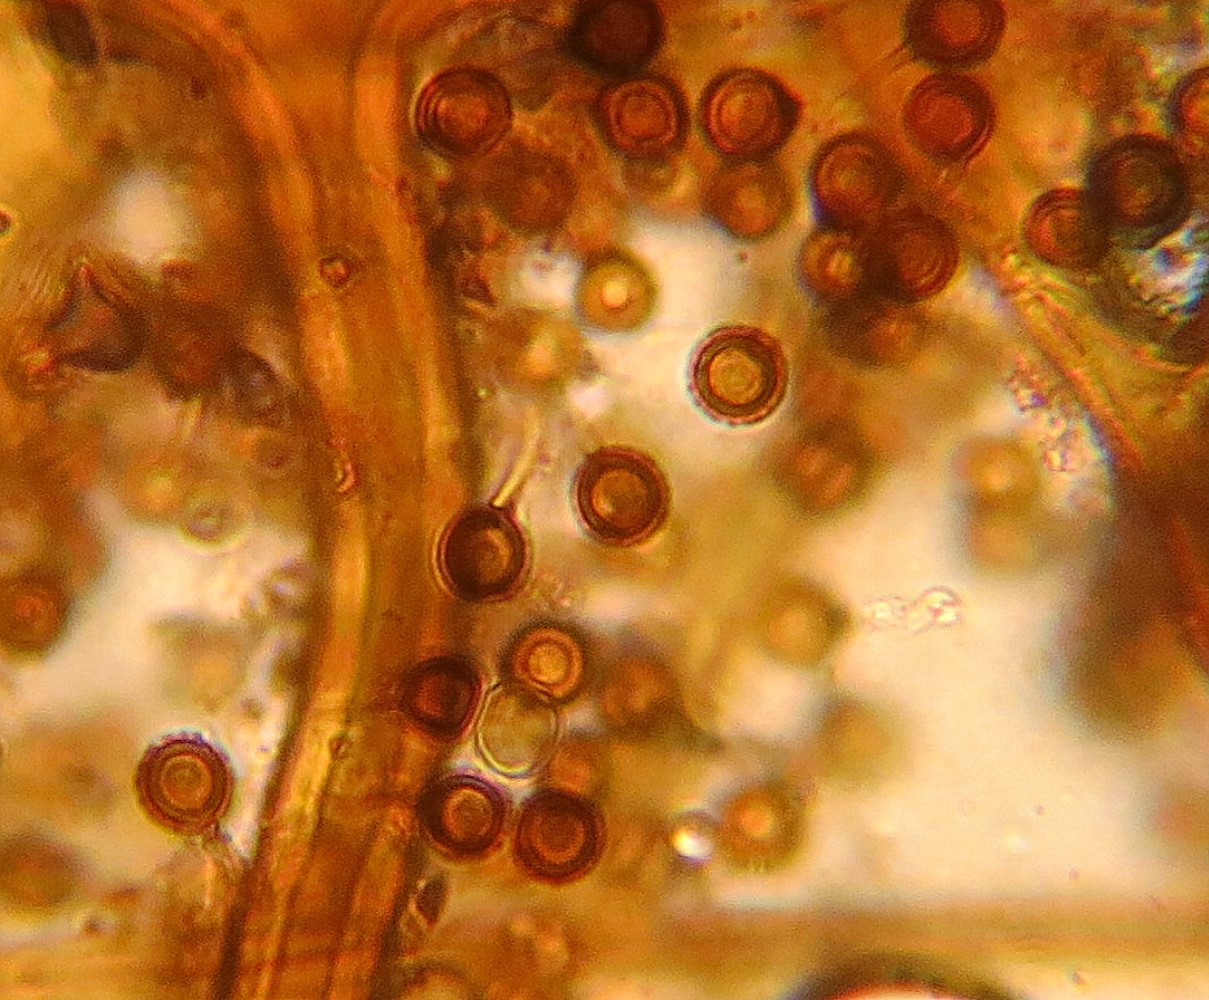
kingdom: Fungi
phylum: Basidiomycota
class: Agaricomycetes
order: Agaricales
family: Lycoperdaceae
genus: Bovista
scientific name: Bovista
